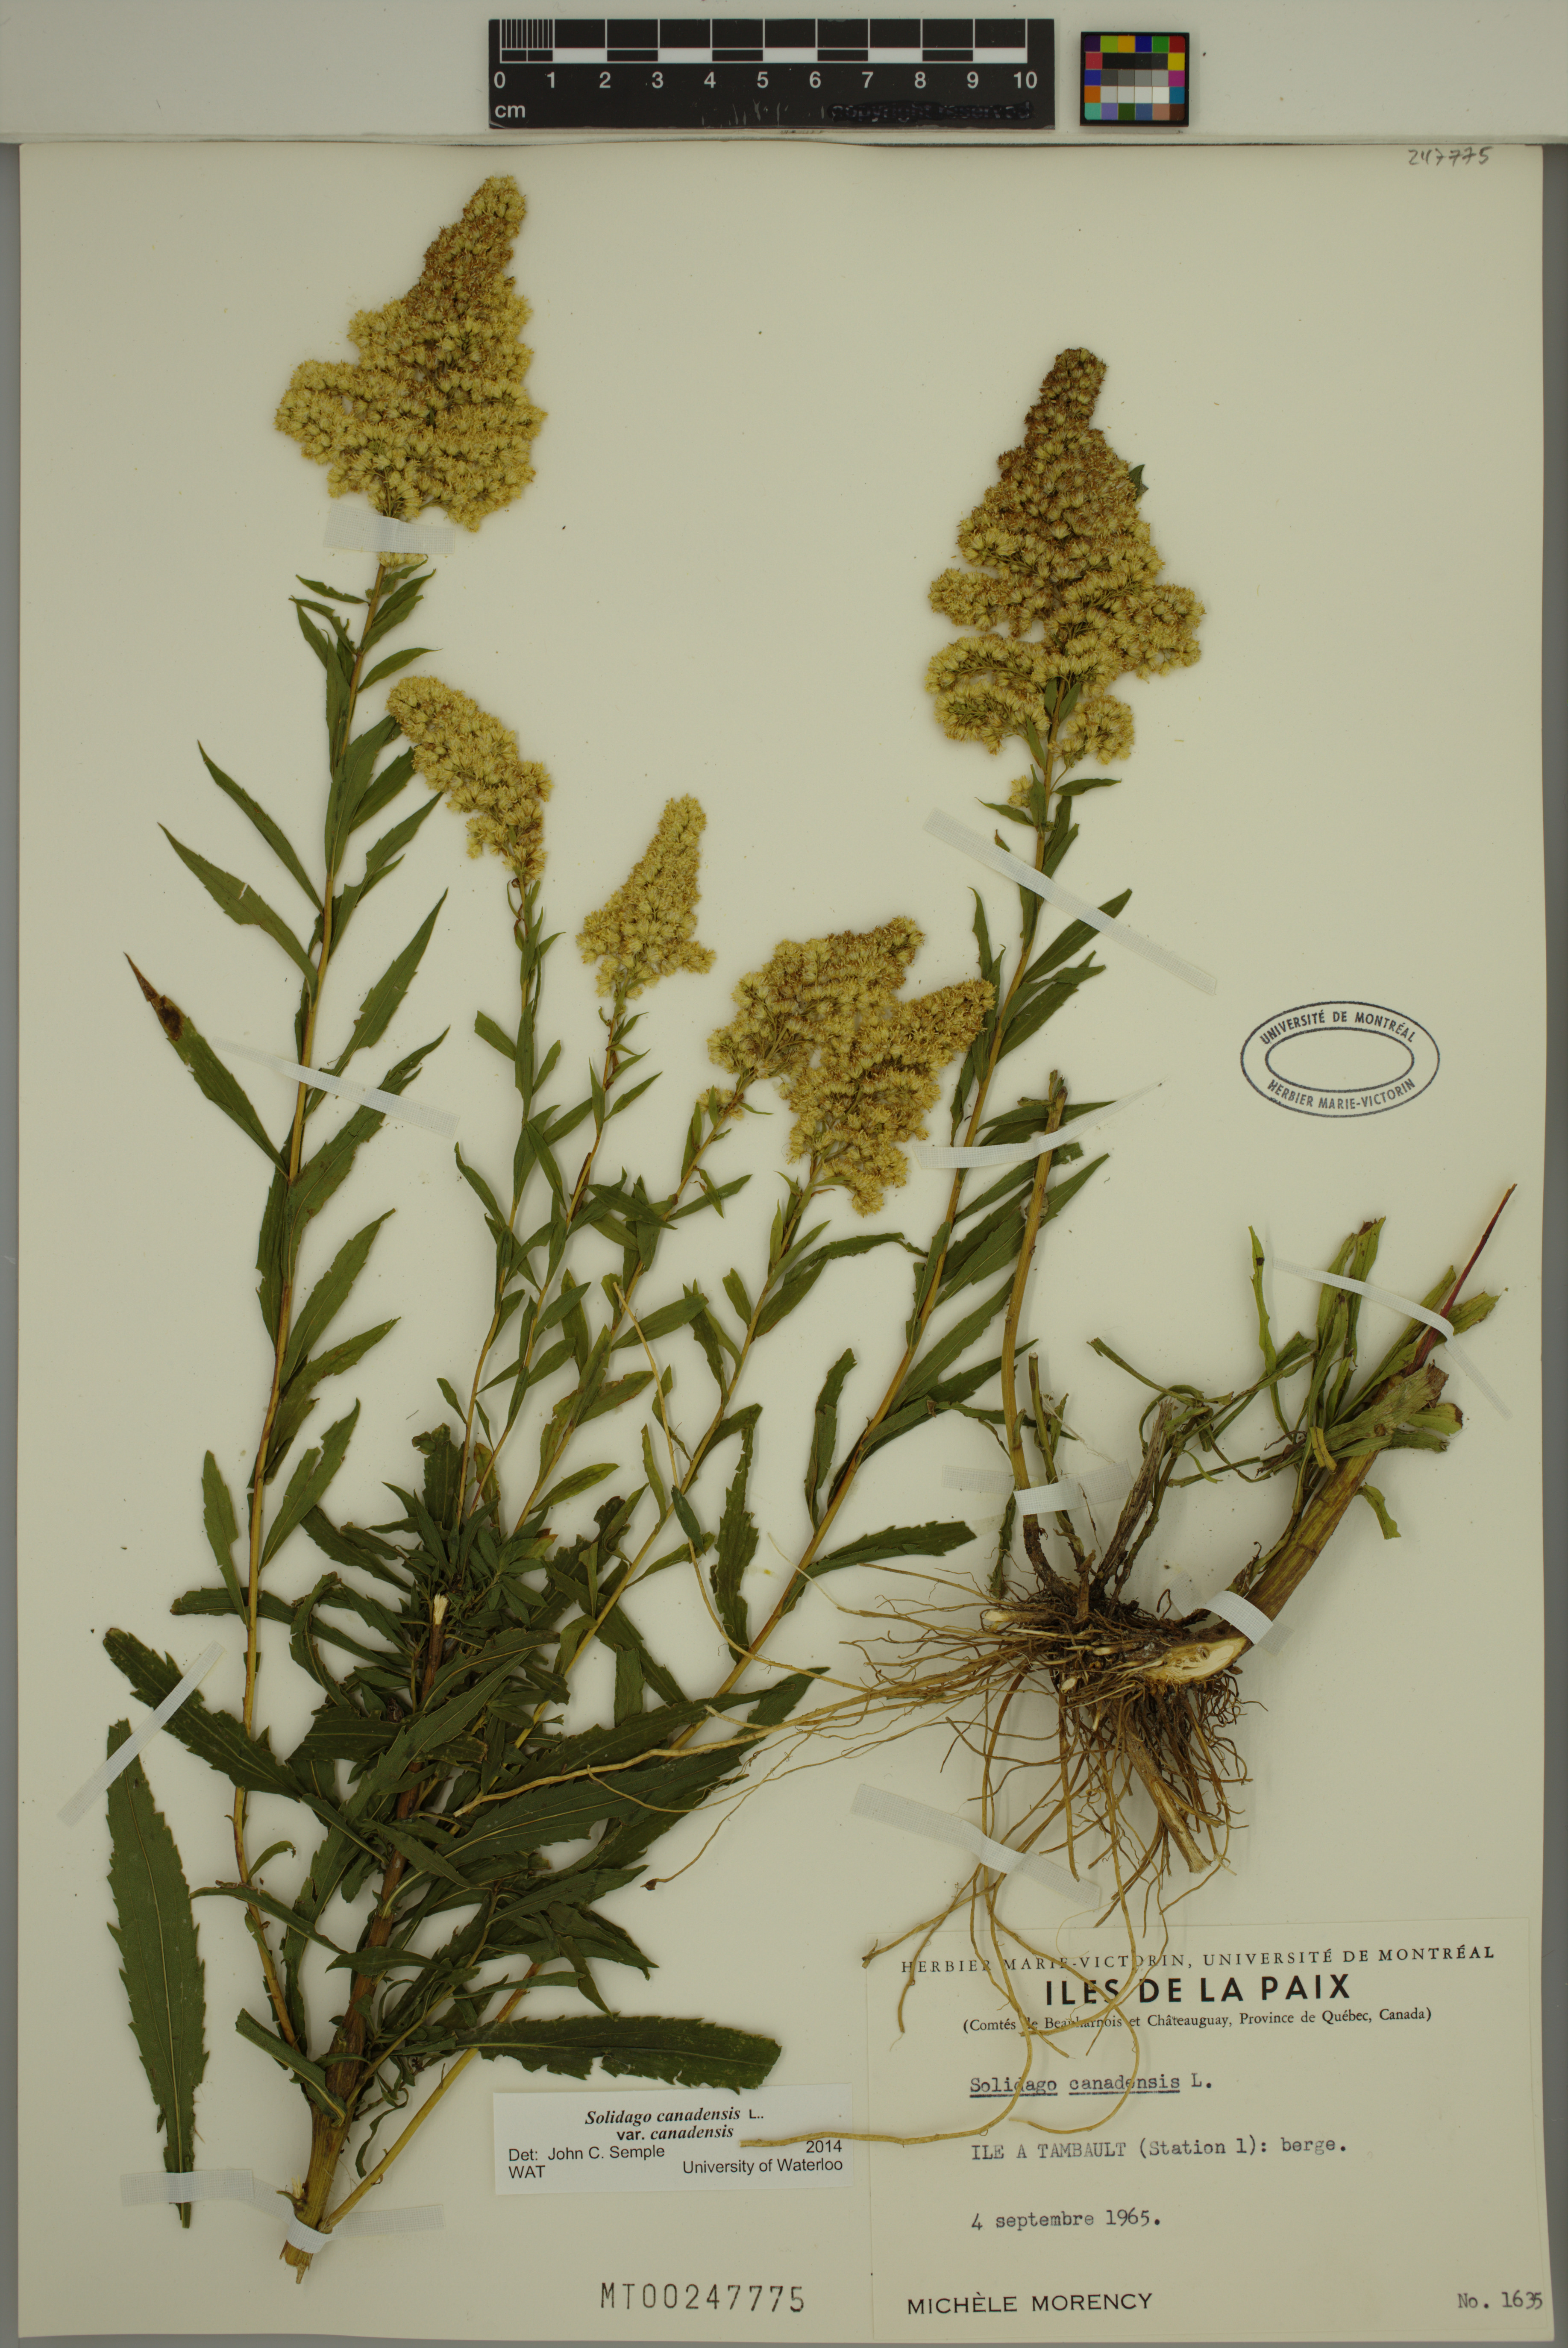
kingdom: Plantae
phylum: Tracheophyta
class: Magnoliopsida
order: Asterales
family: Asteraceae
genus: Solidago
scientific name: Solidago canadensis
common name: Canada goldenrod
